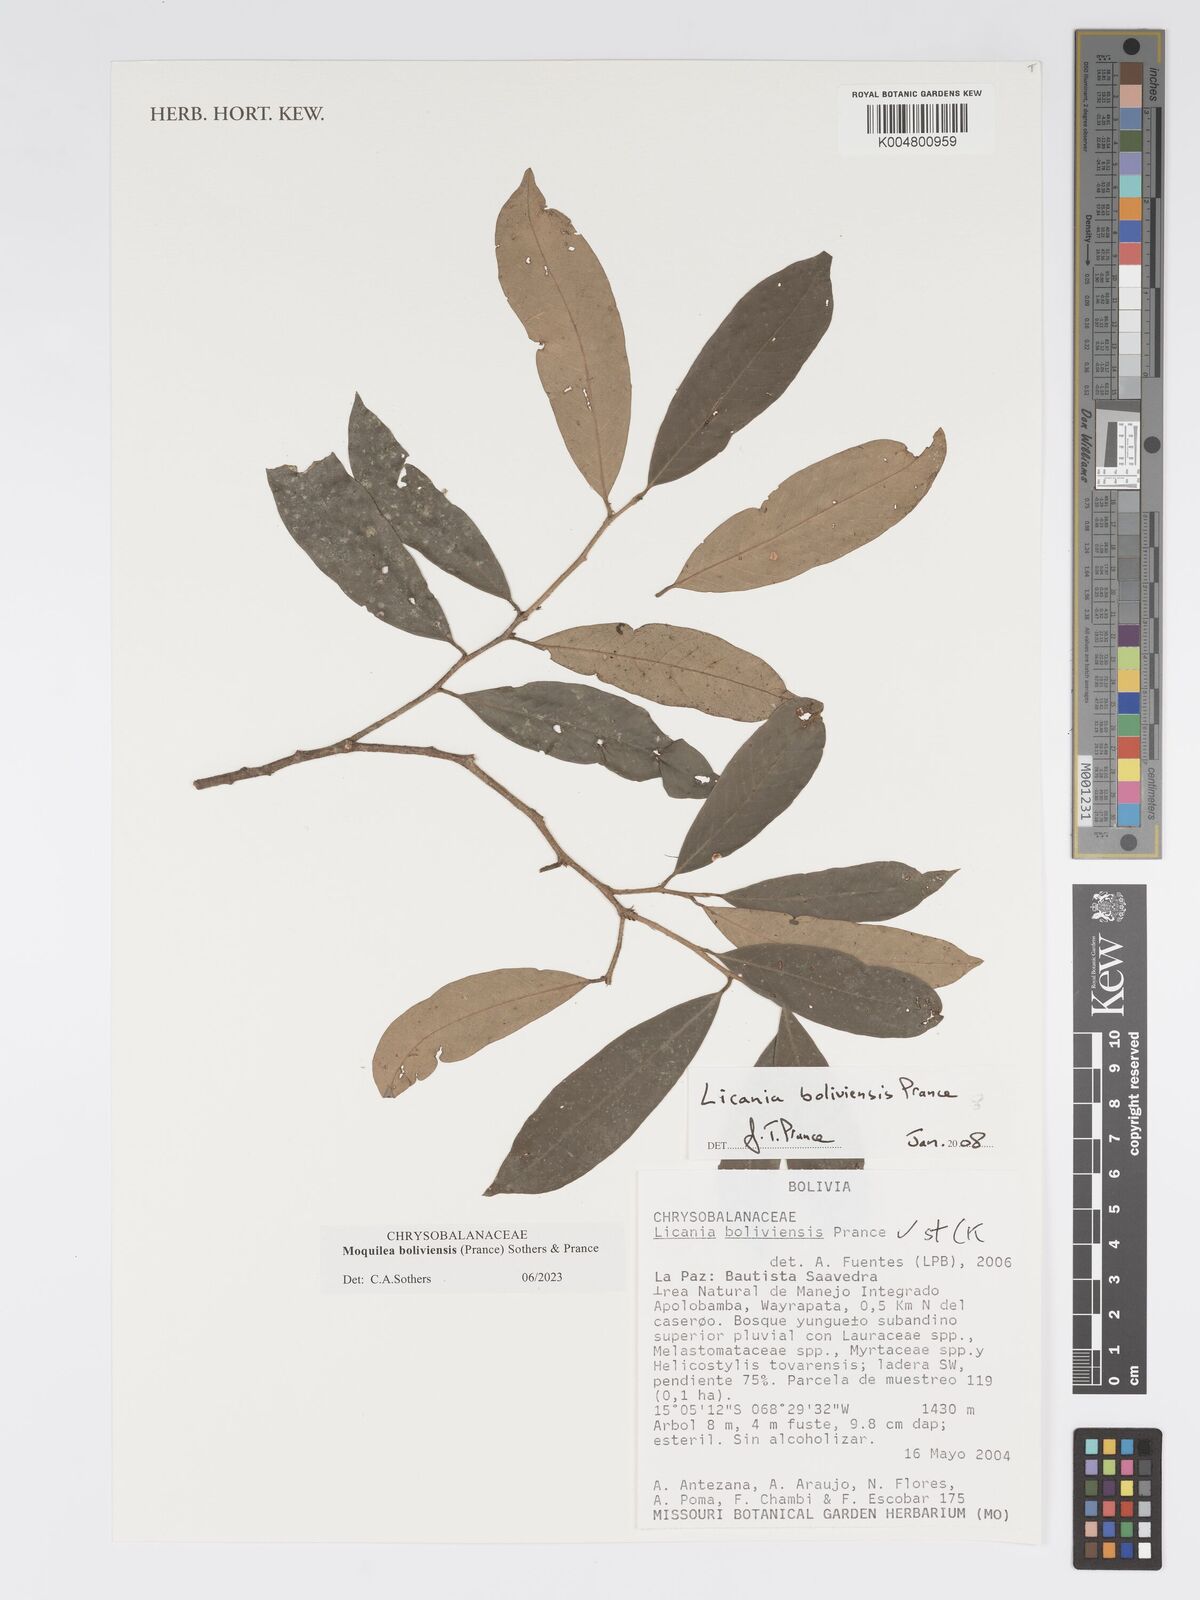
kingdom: Plantae
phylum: Tracheophyta
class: Magnoliopsida
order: Malpighiales
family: Chrysobalanaceae
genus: Moquilea
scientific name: Moquilea boliviensis
